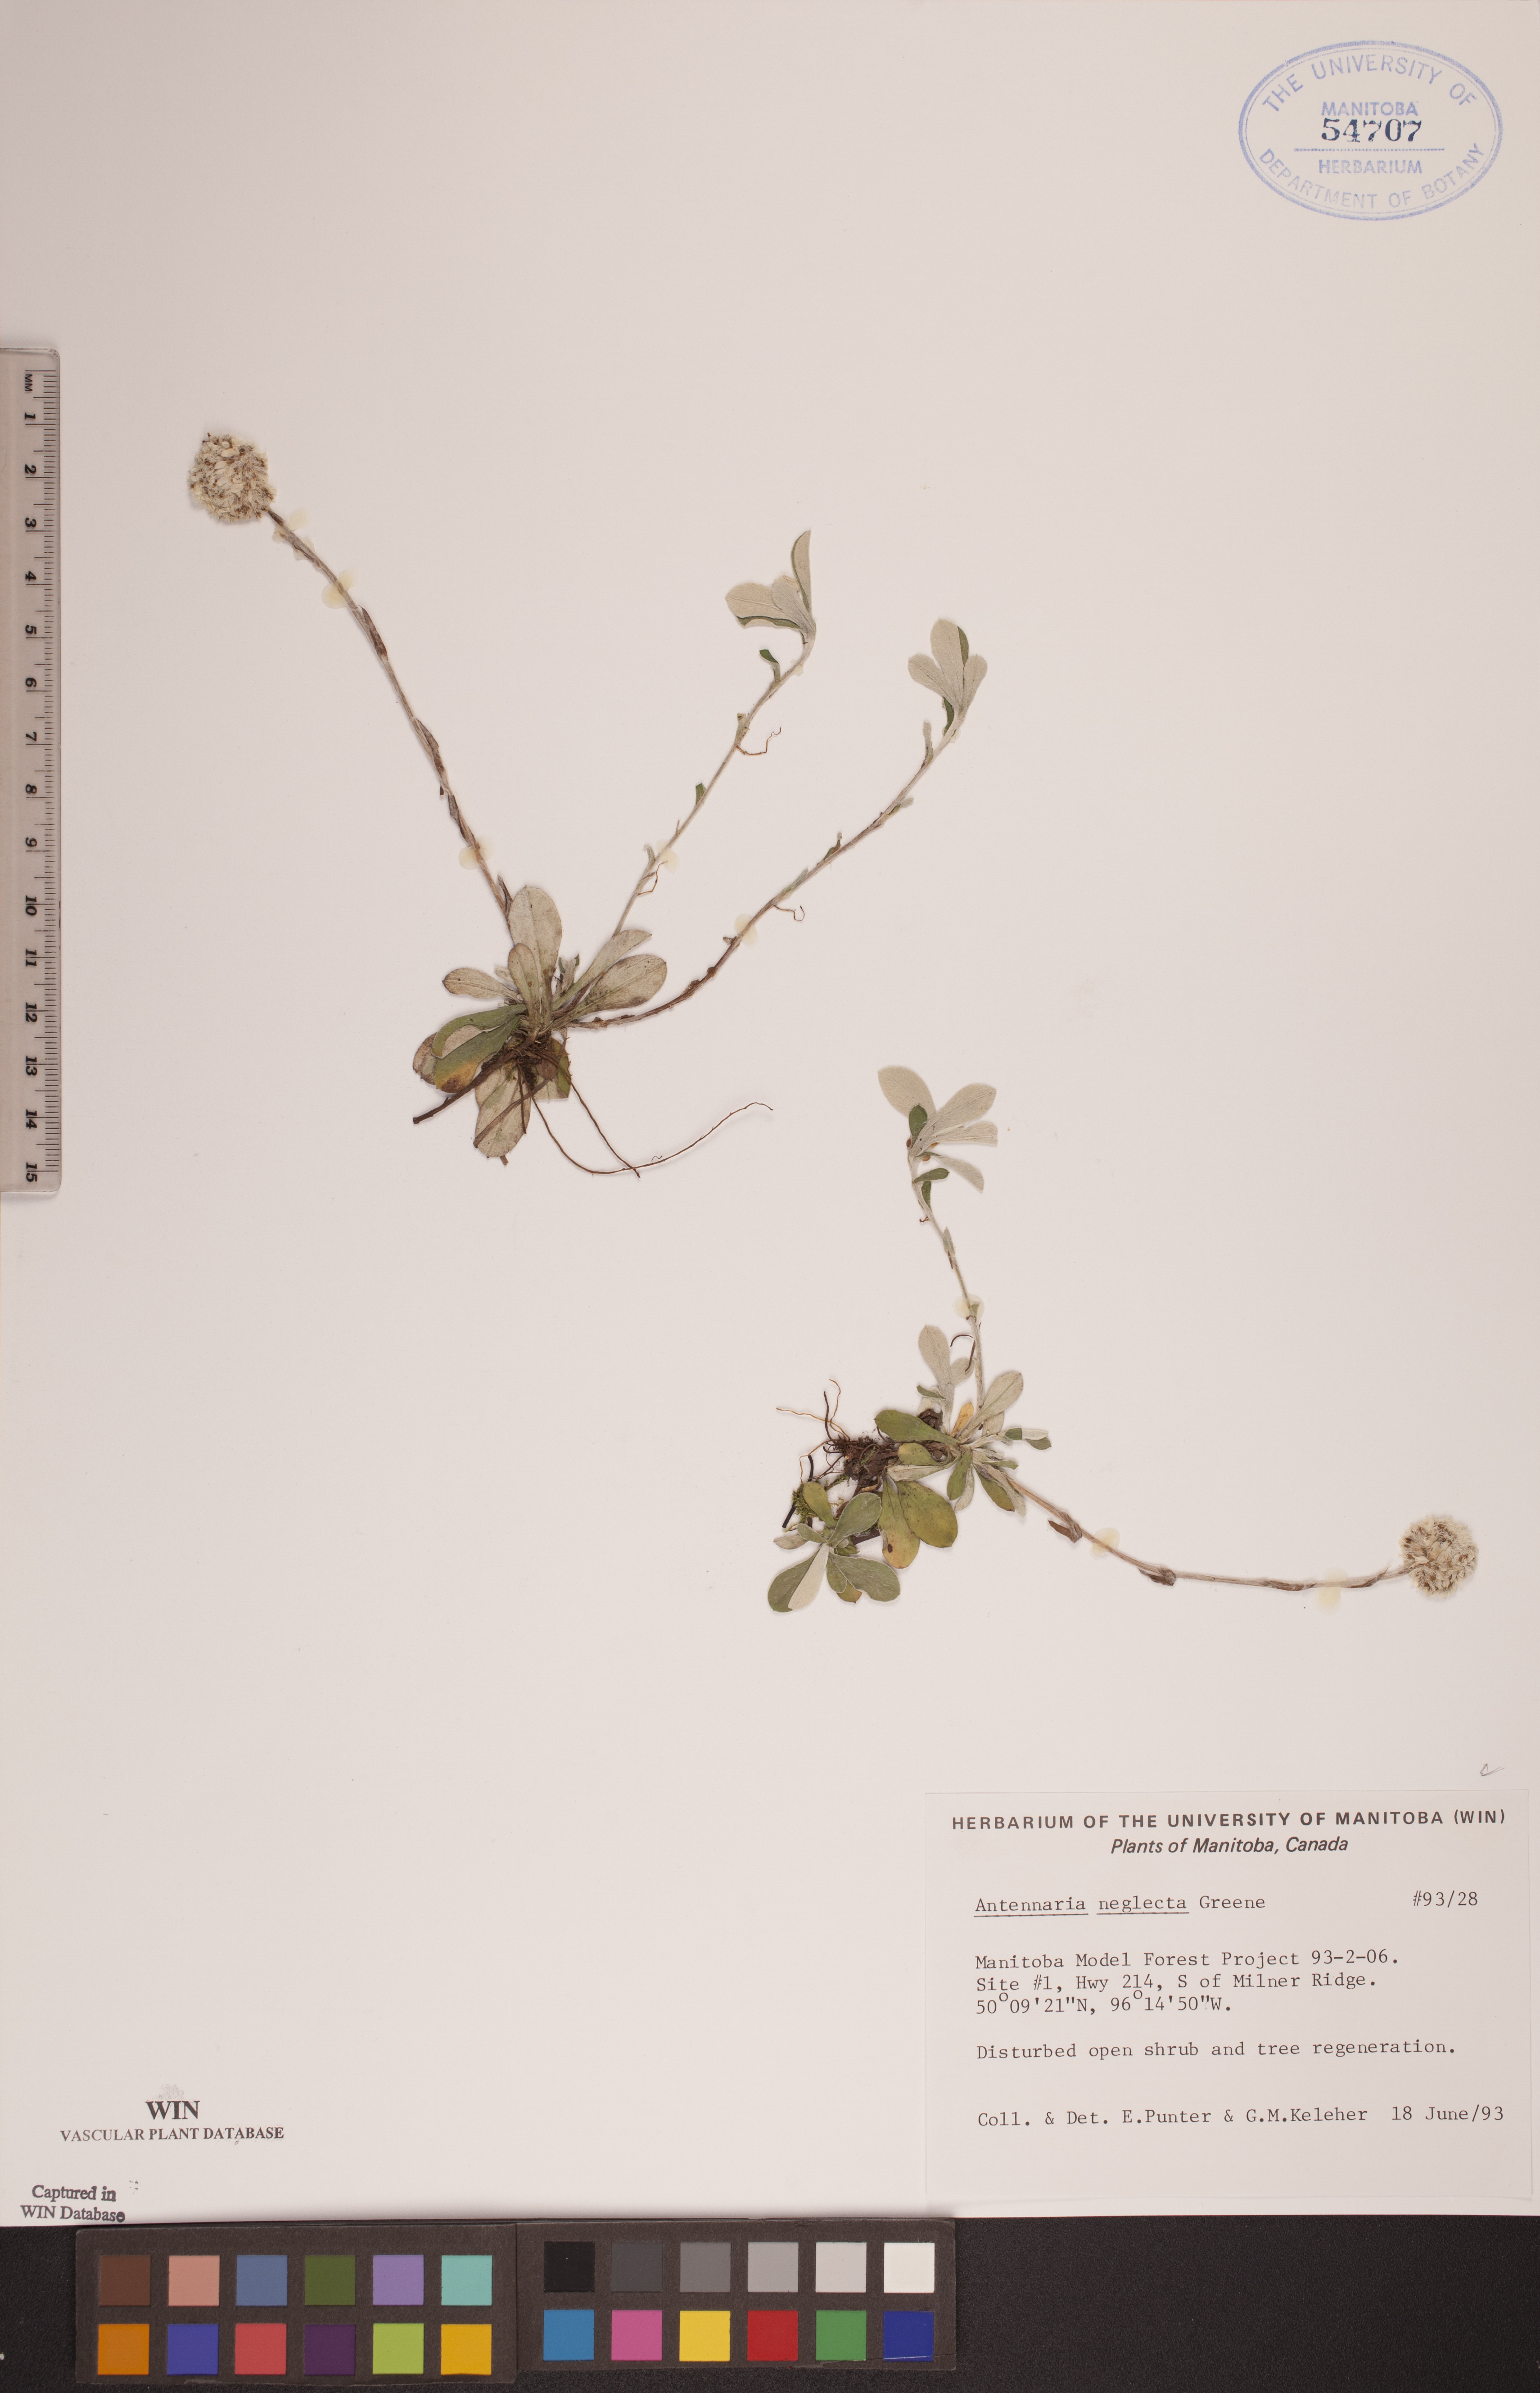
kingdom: Plantae
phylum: Tracheophyta
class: Magnoliopsida
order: Asterales
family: Asteraceae
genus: Antennaria
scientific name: Antennaria neglecta
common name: Field pussytoes
